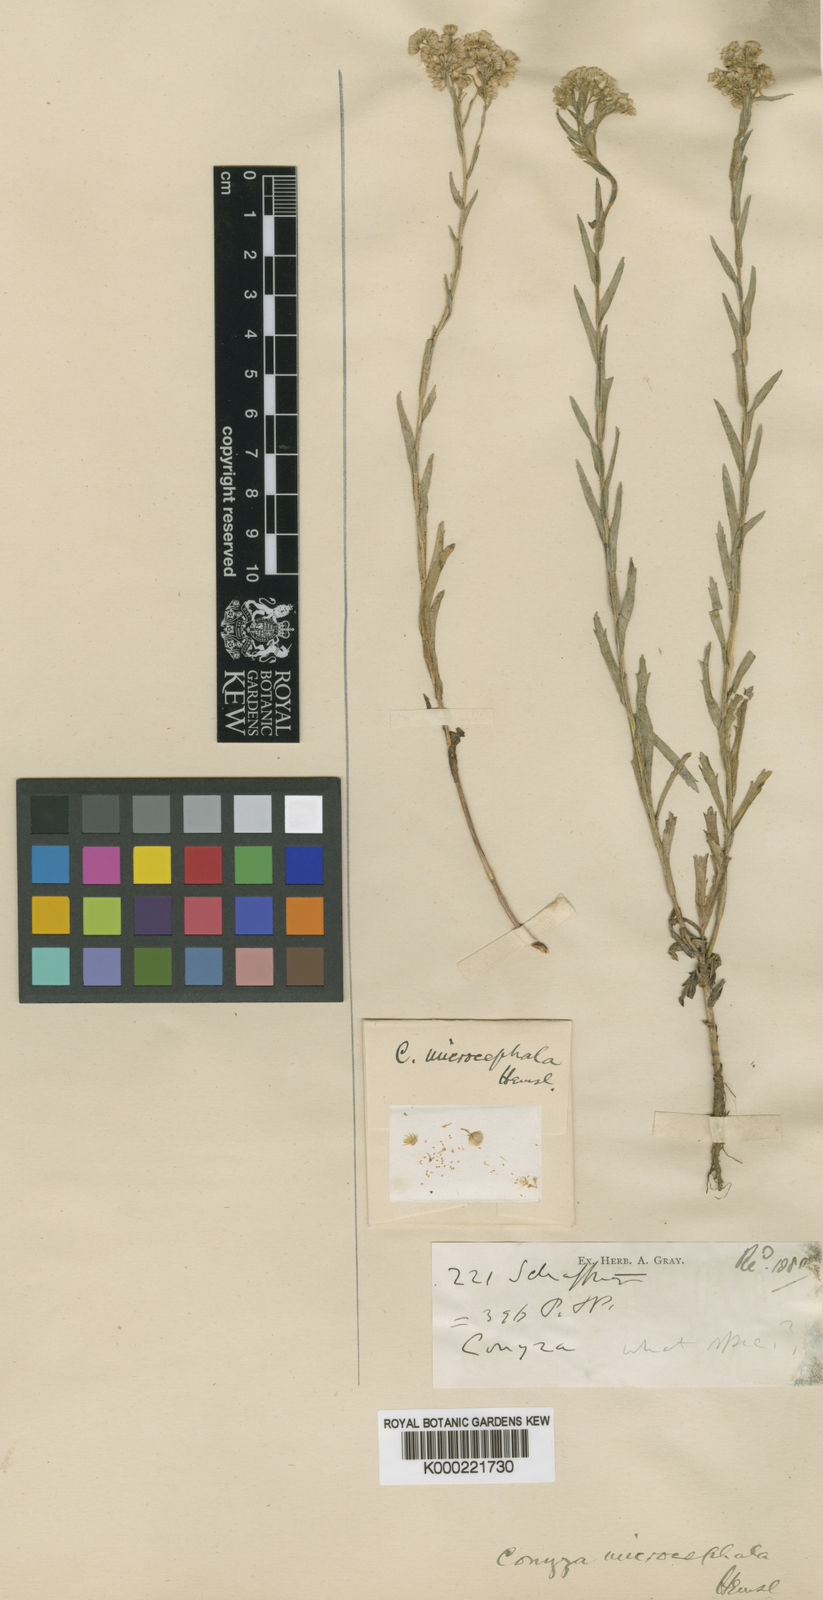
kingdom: Plantae
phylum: Tracheophyta
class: Magnoliopsida
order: Asterales
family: Asteraceae
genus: Erigeron
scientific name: Erigeron columnaris
